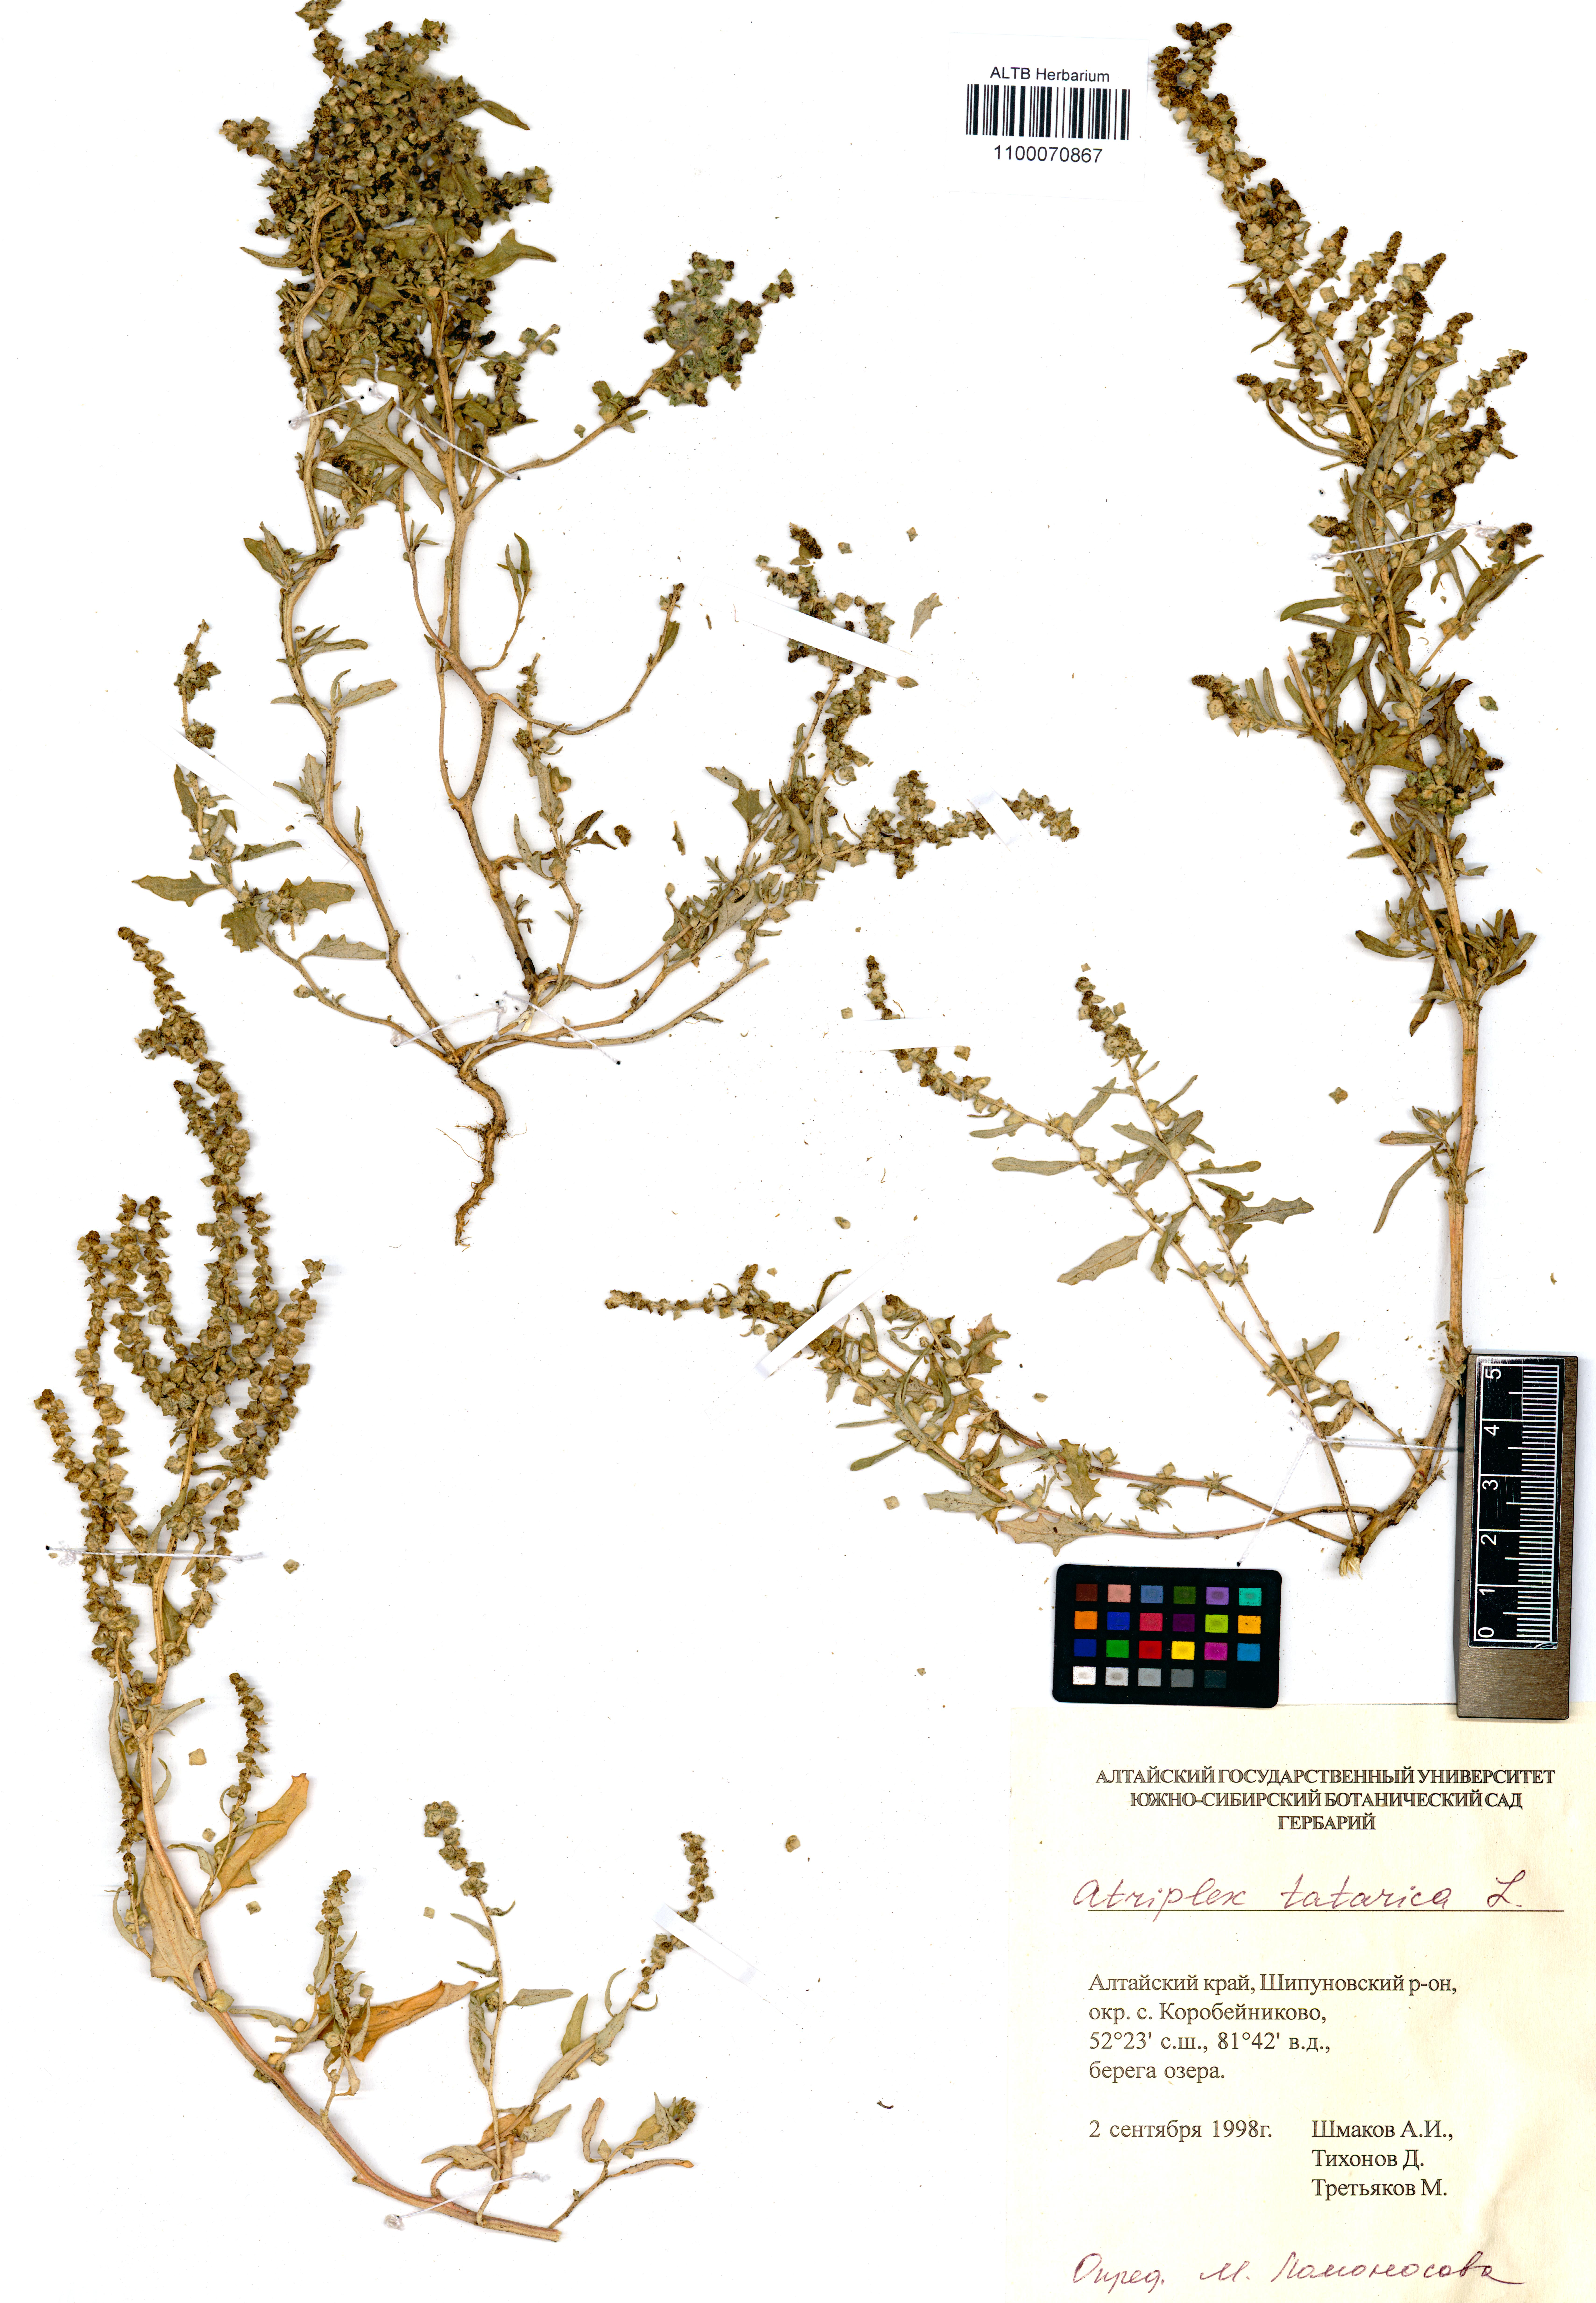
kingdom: Plantae
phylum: Tracheophyta
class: Magnoliopsida
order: Caryophyllales
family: Amaranthaceae
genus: Atriplex
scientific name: Atriplex tatarica
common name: Tatarian orache
